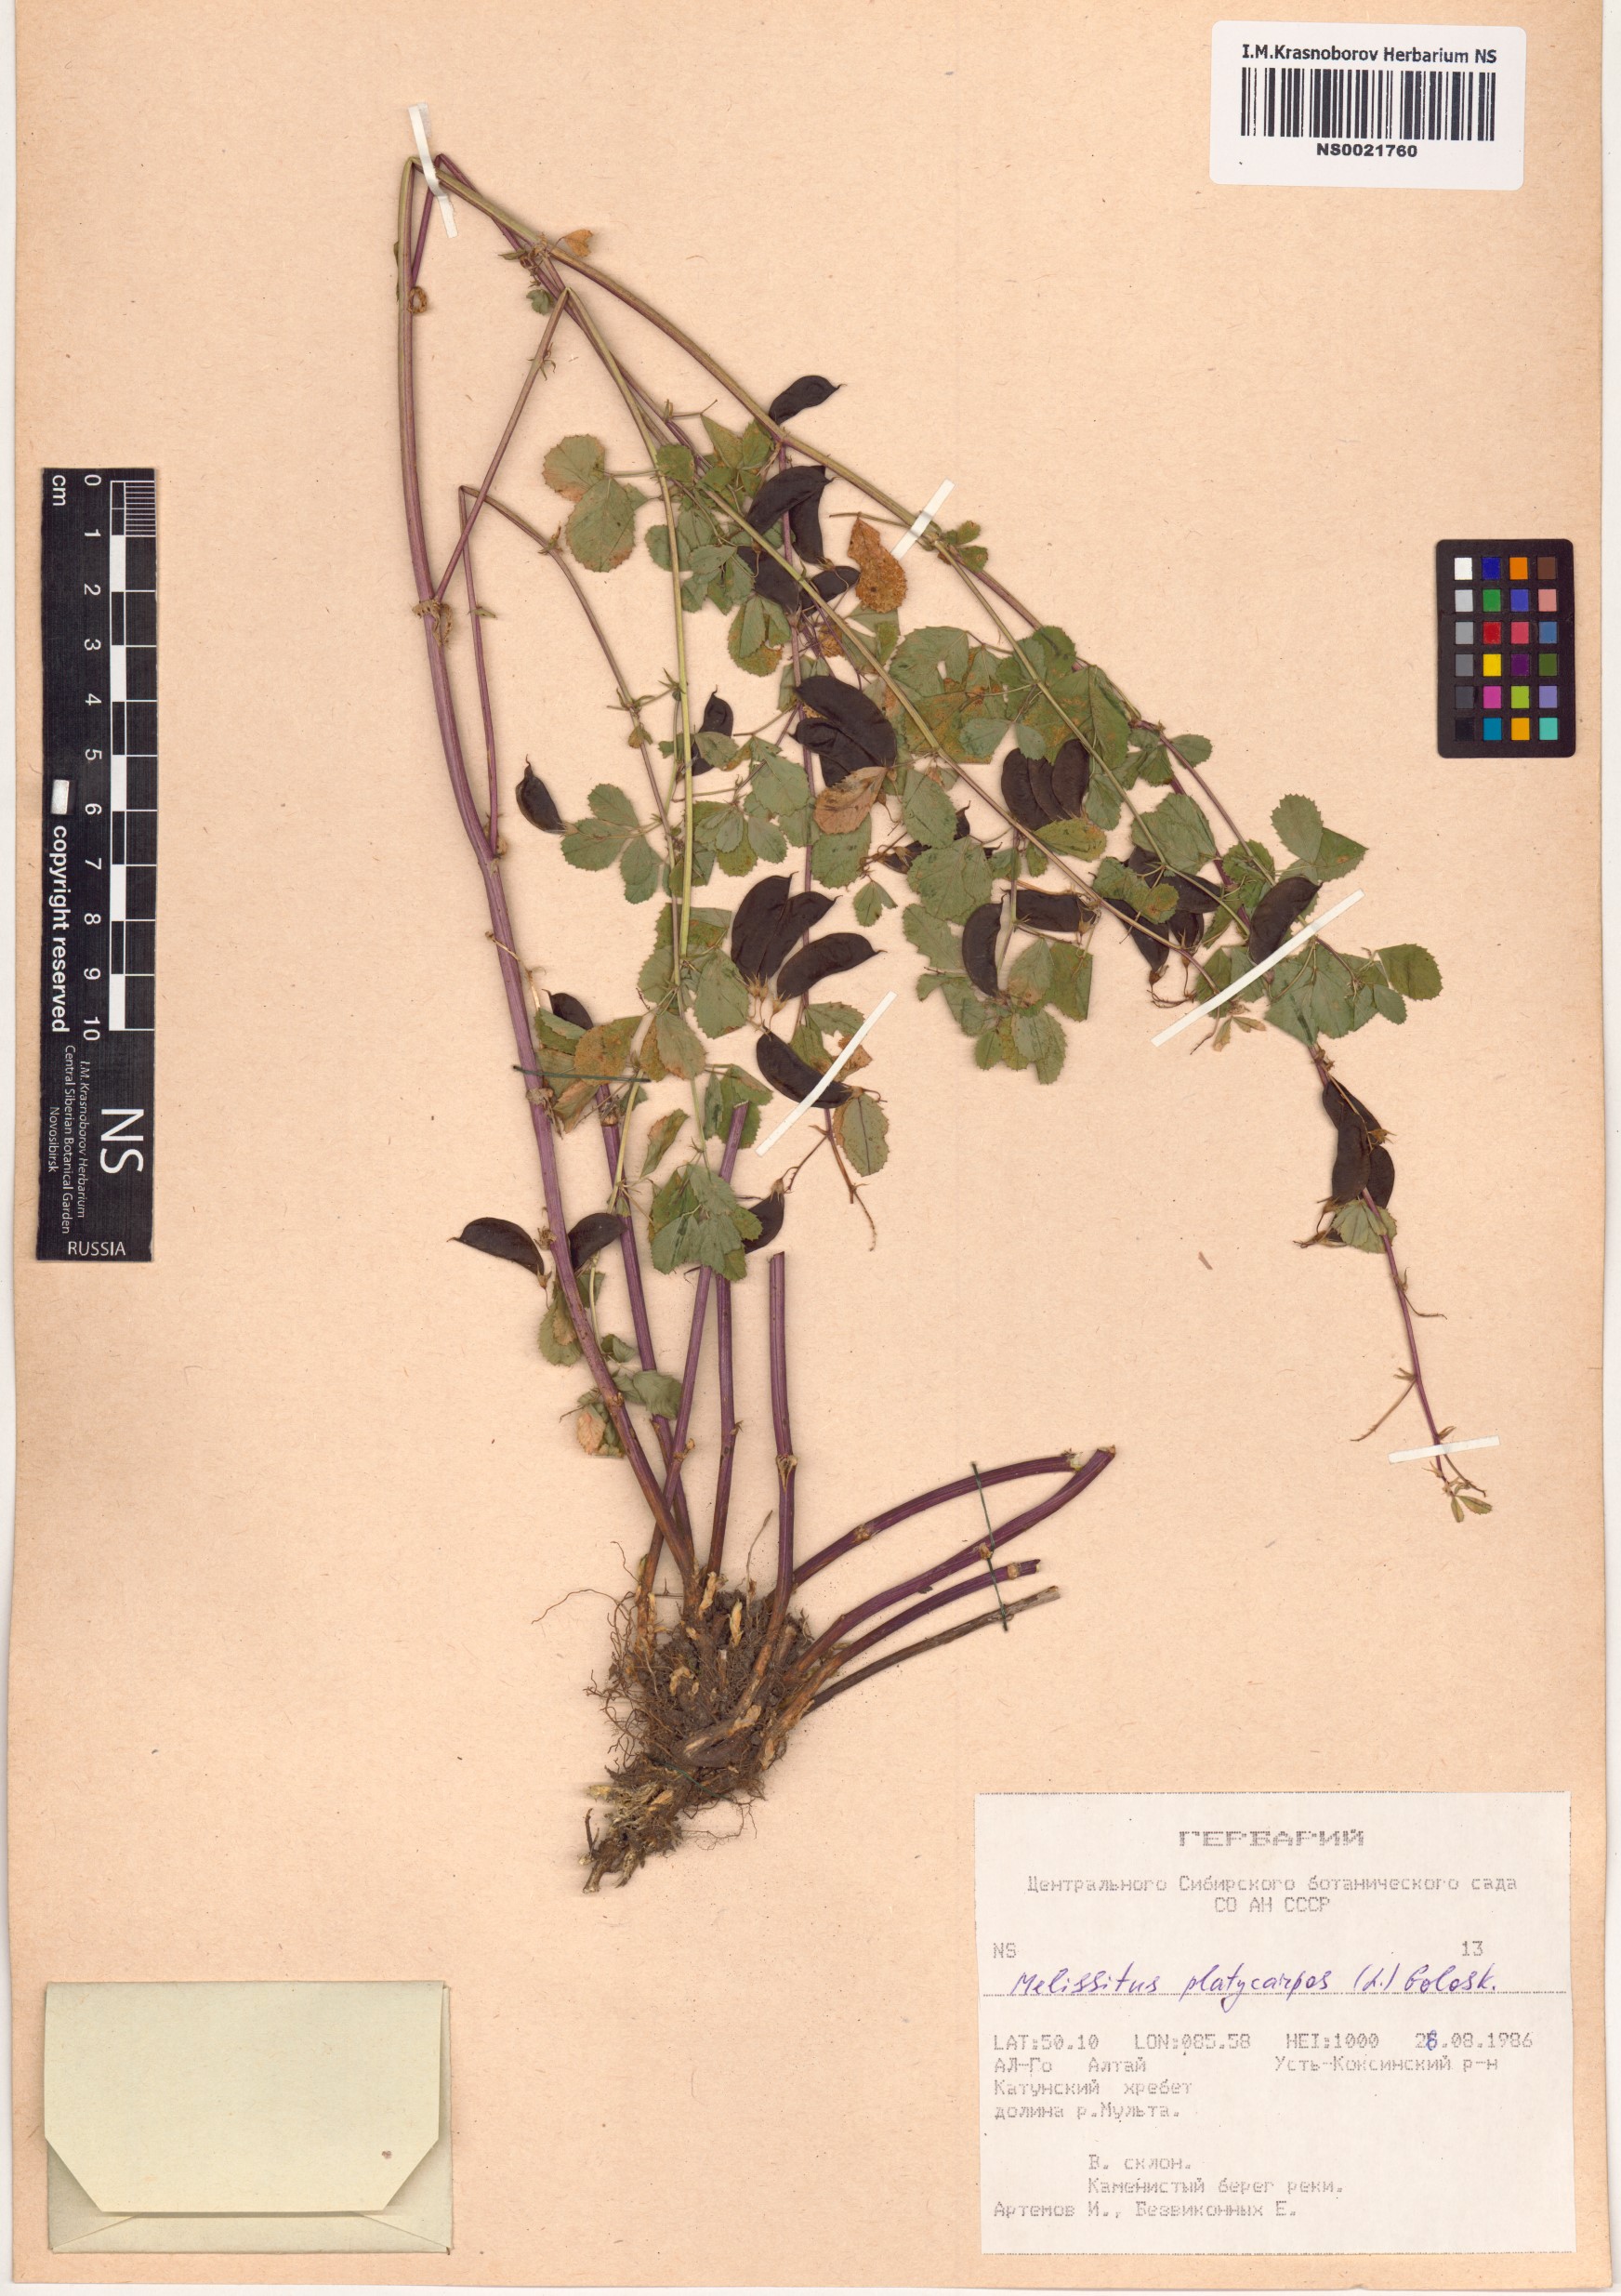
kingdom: Plantae
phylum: Tracheophyta
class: Magnoliopsida
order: Fabales
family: Fabaceae
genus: Medicago
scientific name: Medicago platycarpos
